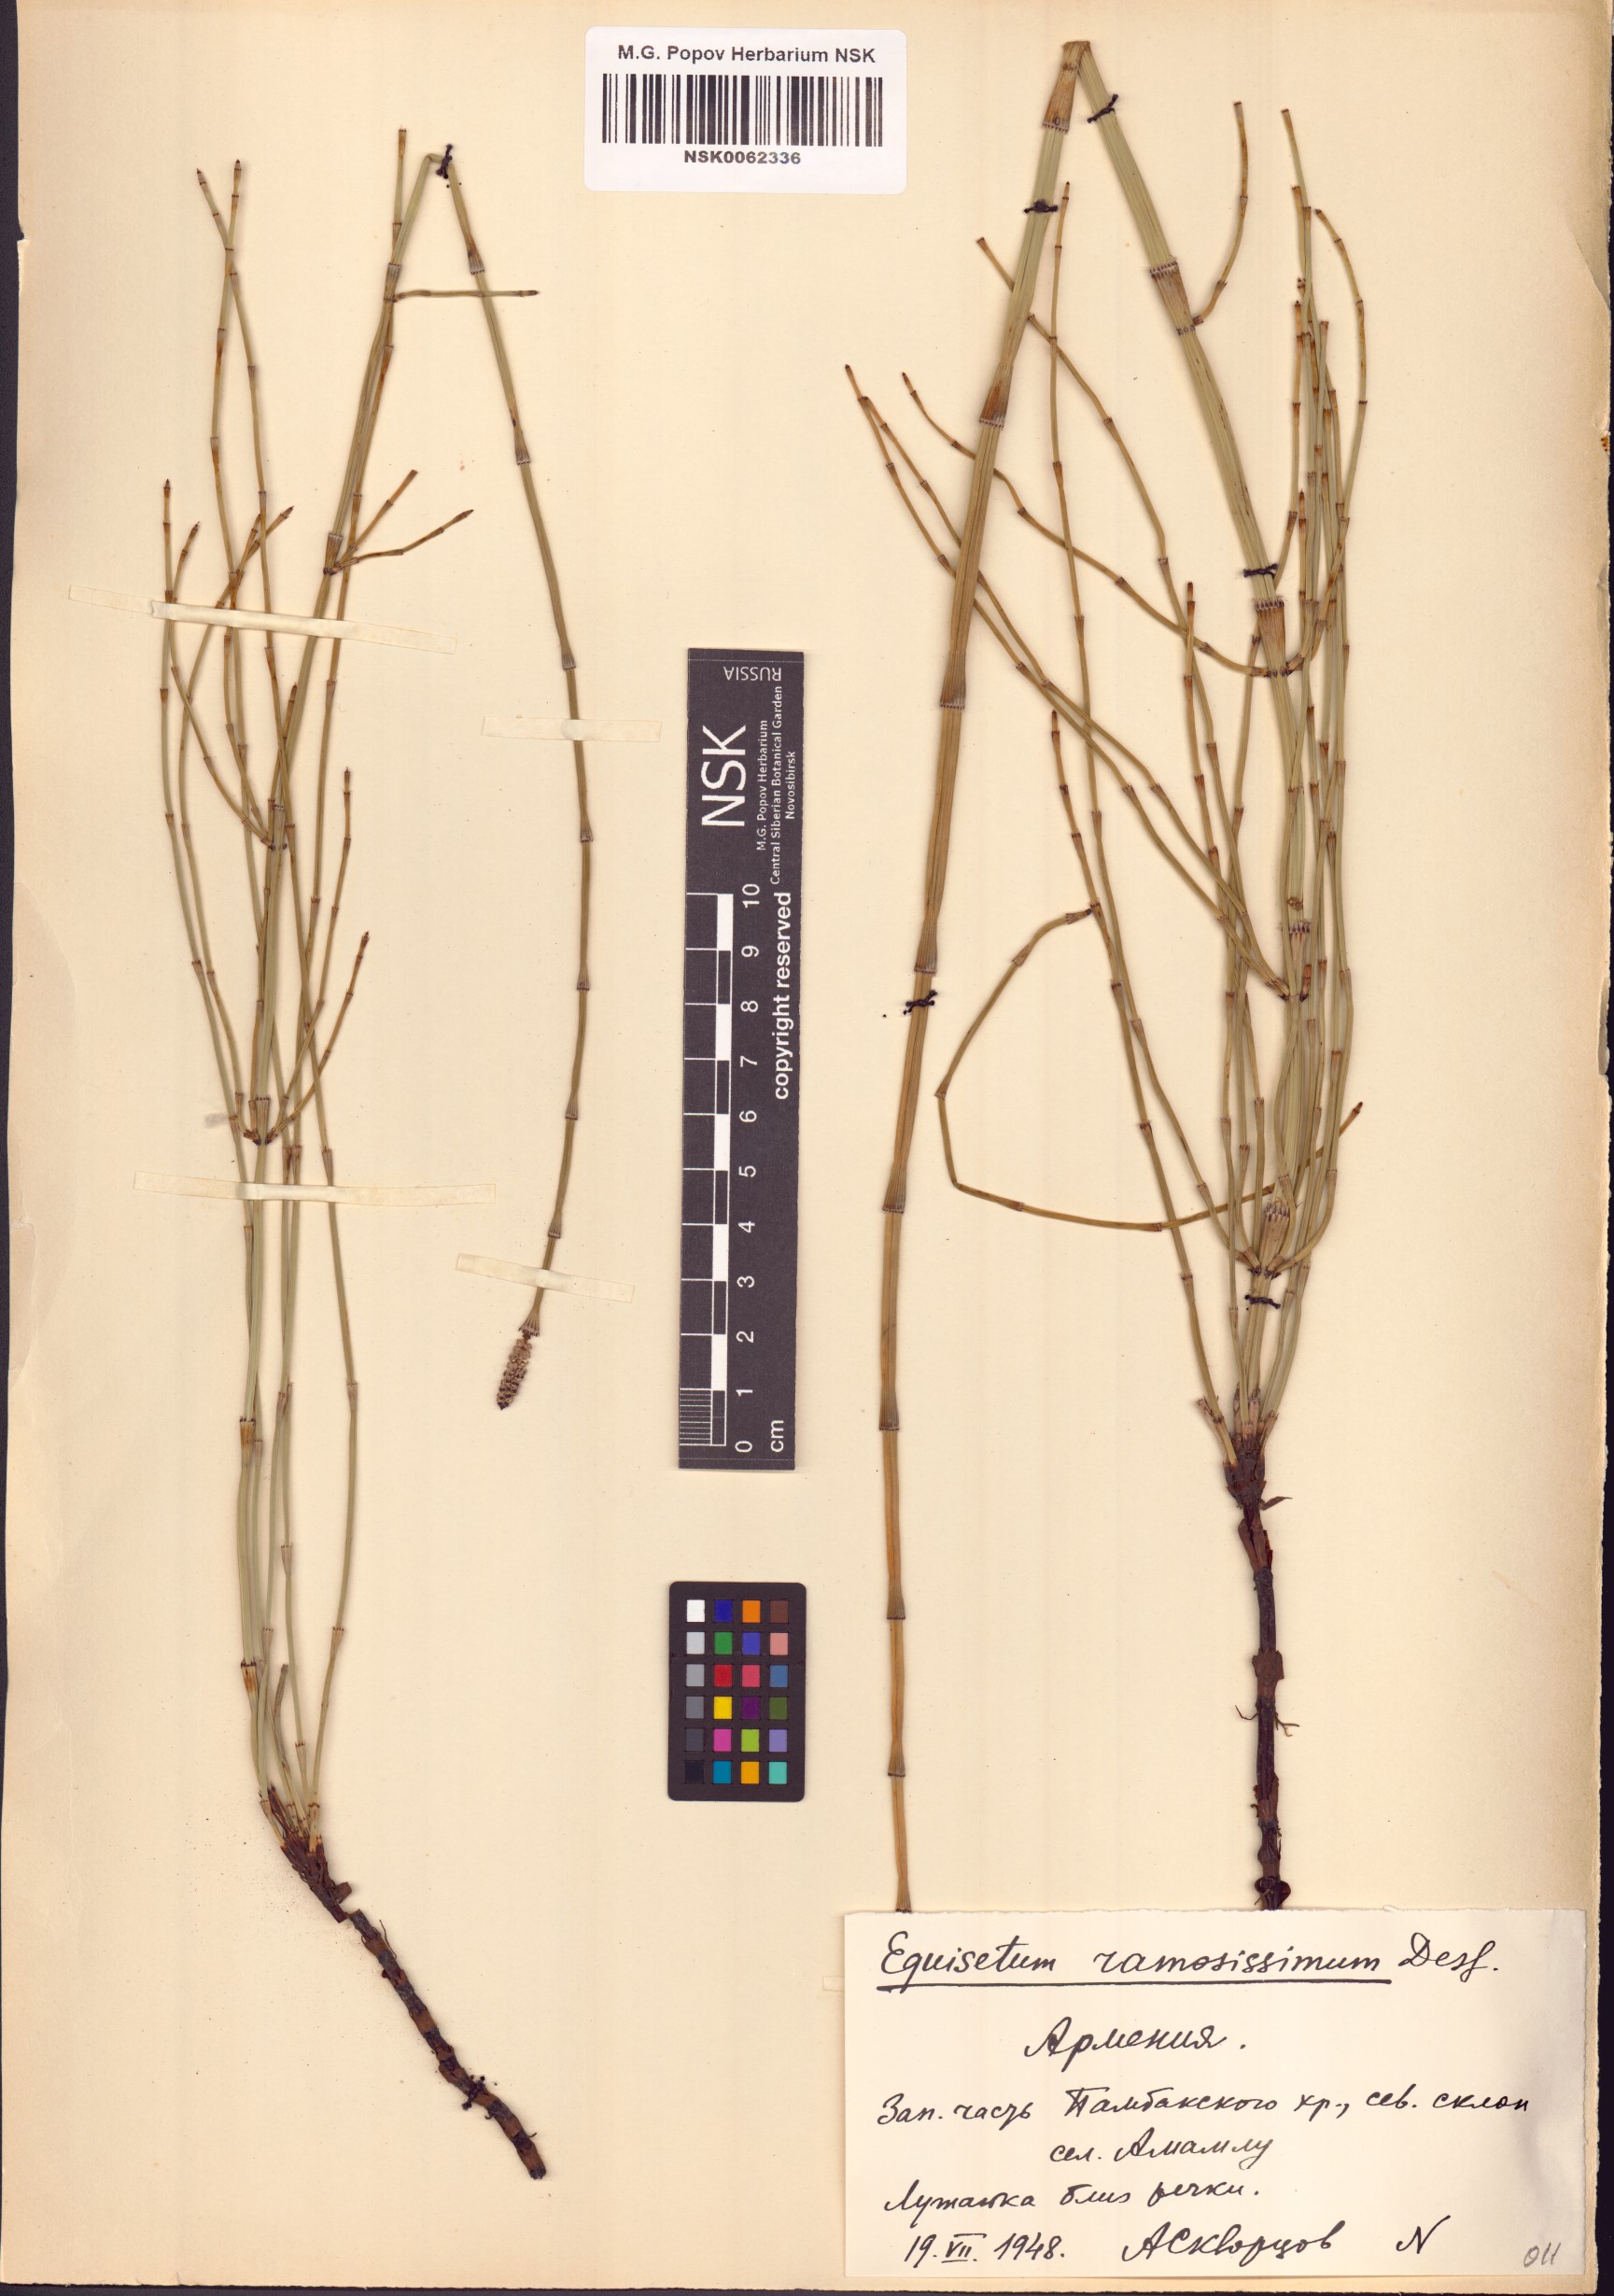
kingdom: Plantae
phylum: Tracheophyta
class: Polypodiopsida
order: Equisetales
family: Equisetaceae
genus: Equisetum
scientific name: Equisetum ramosissimum
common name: Branched horsetail
